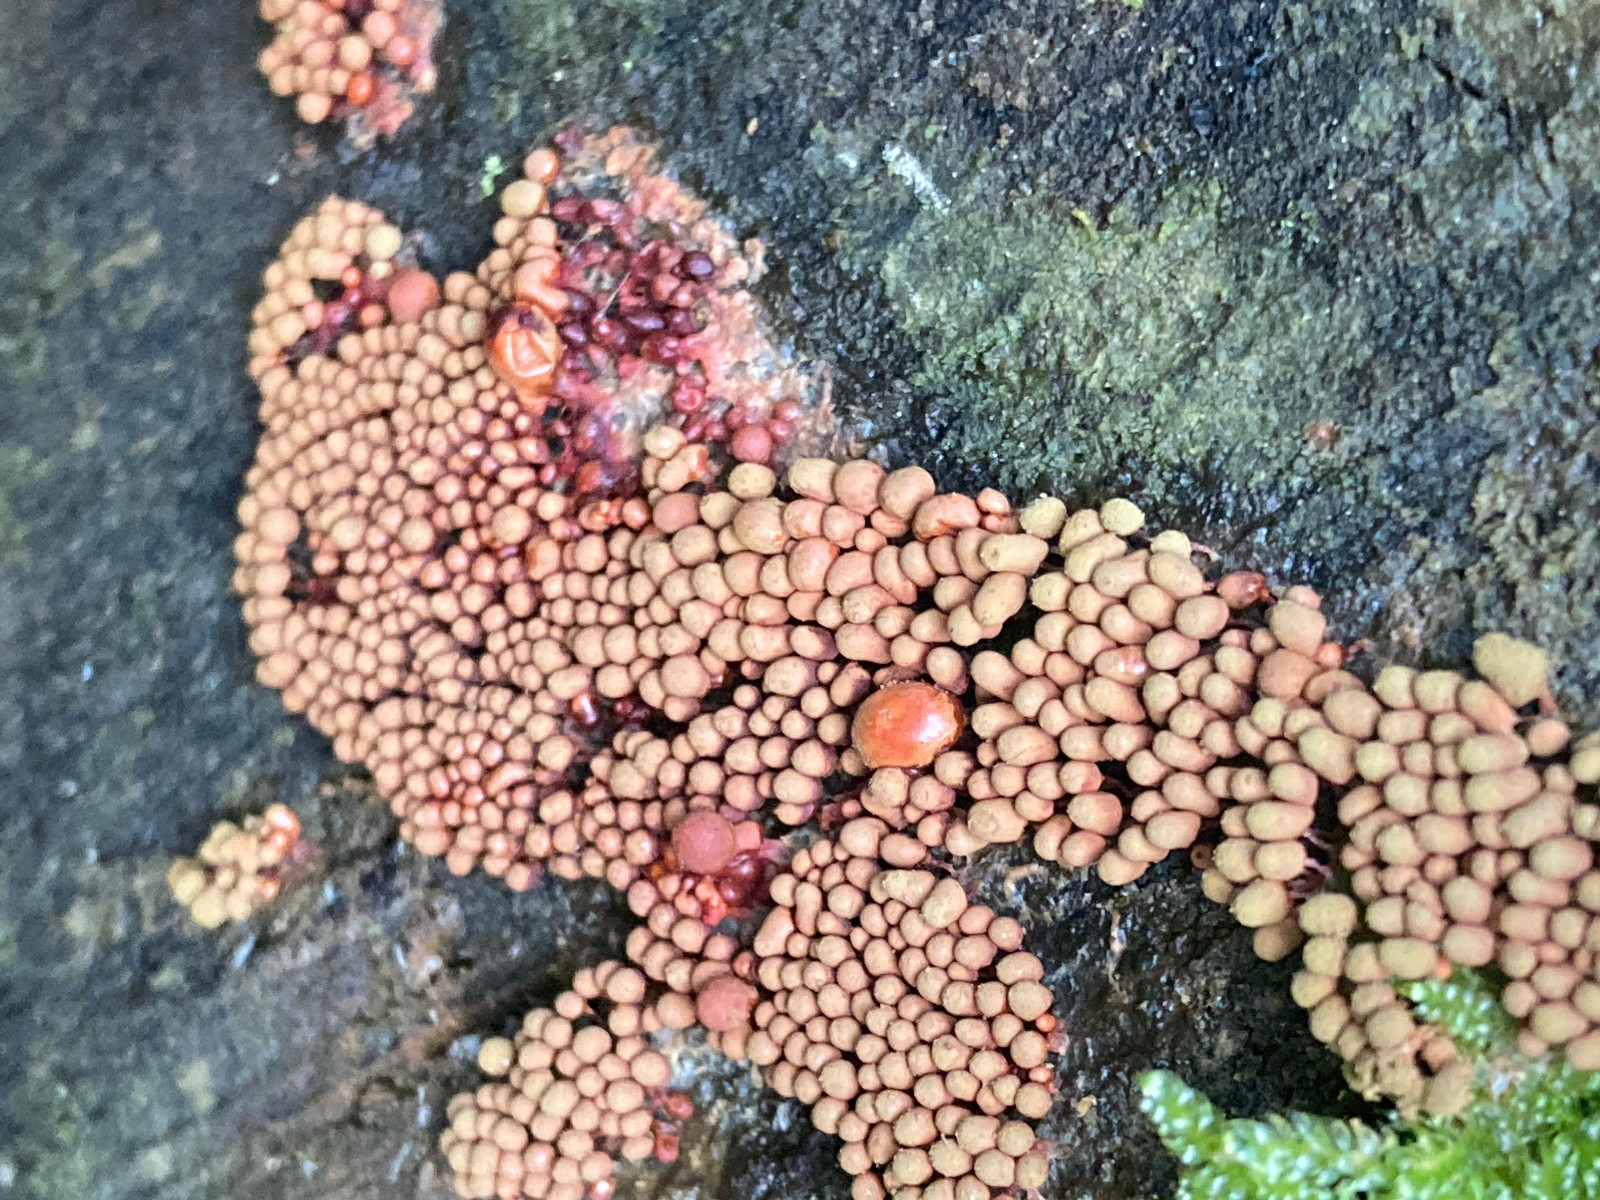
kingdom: Protozoa
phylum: Amoebozoa
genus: Arcyria
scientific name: Arcyria
